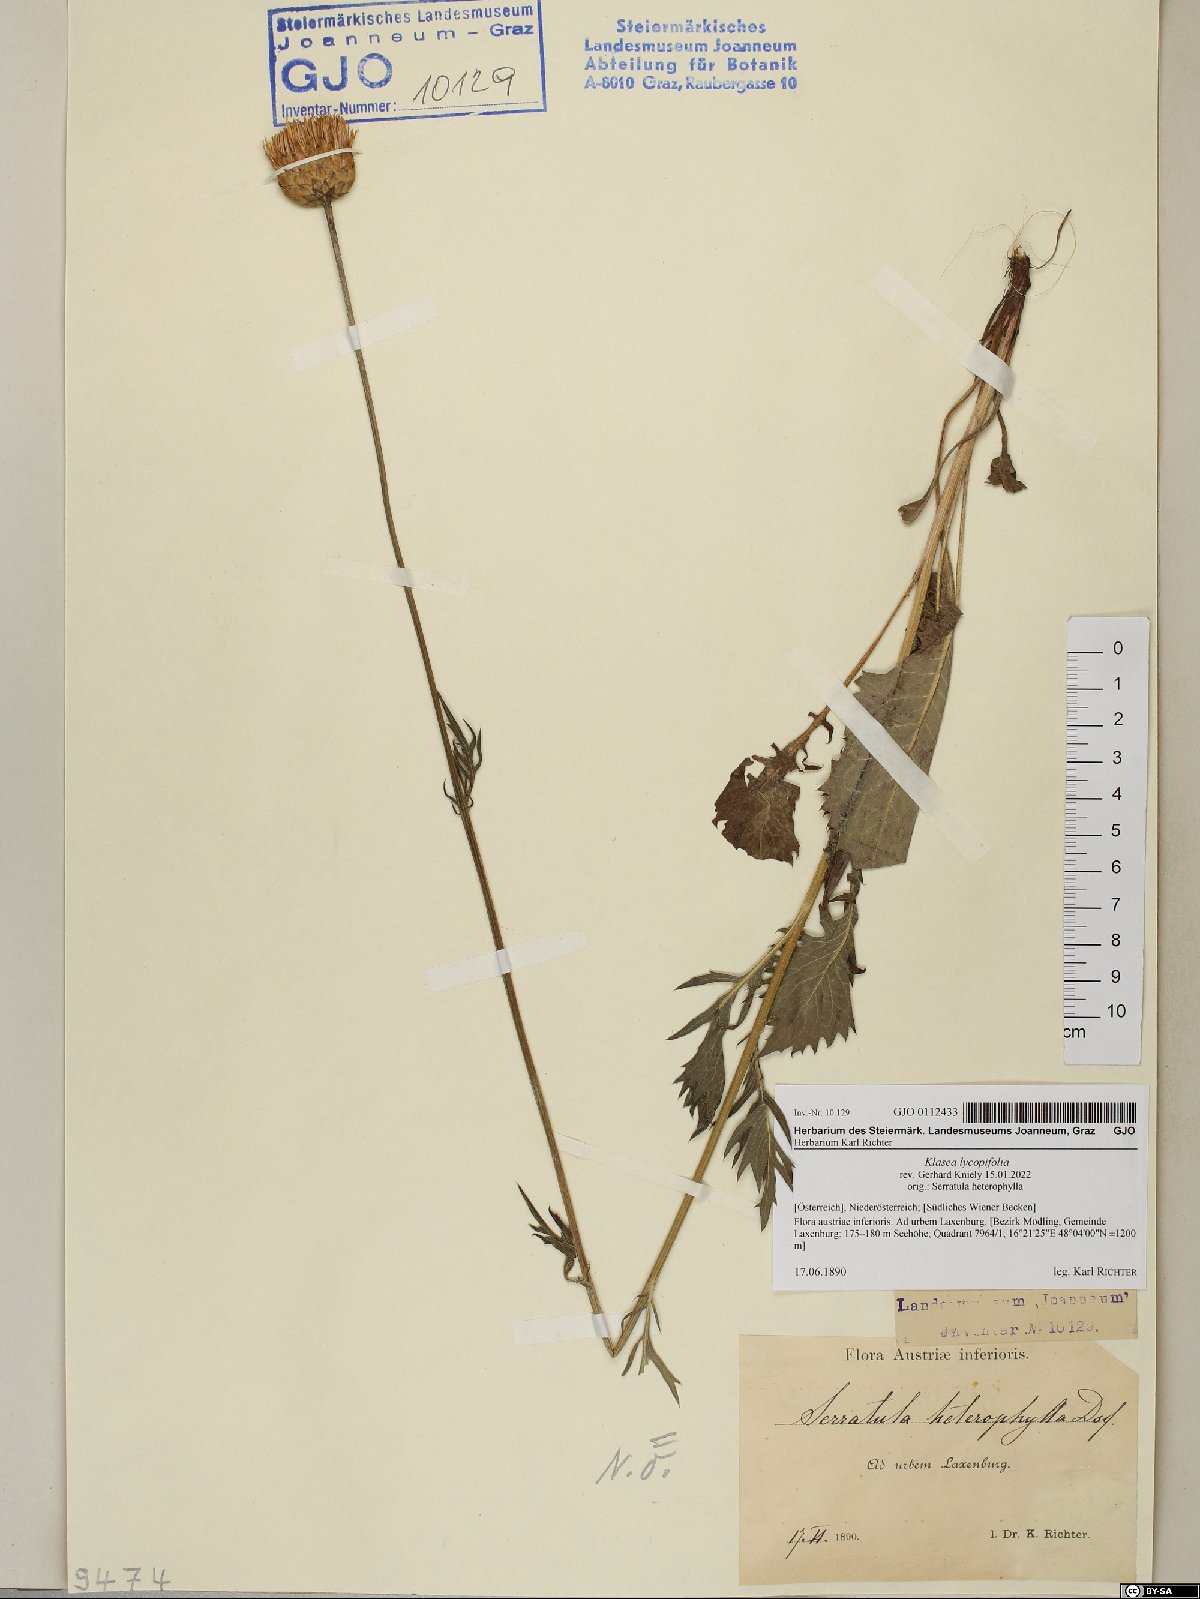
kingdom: Plantae
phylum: Tracheophyta
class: Magnoliopsida
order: Asterales
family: Asteraceae
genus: Klasea
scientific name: Klasea lycopifolia
